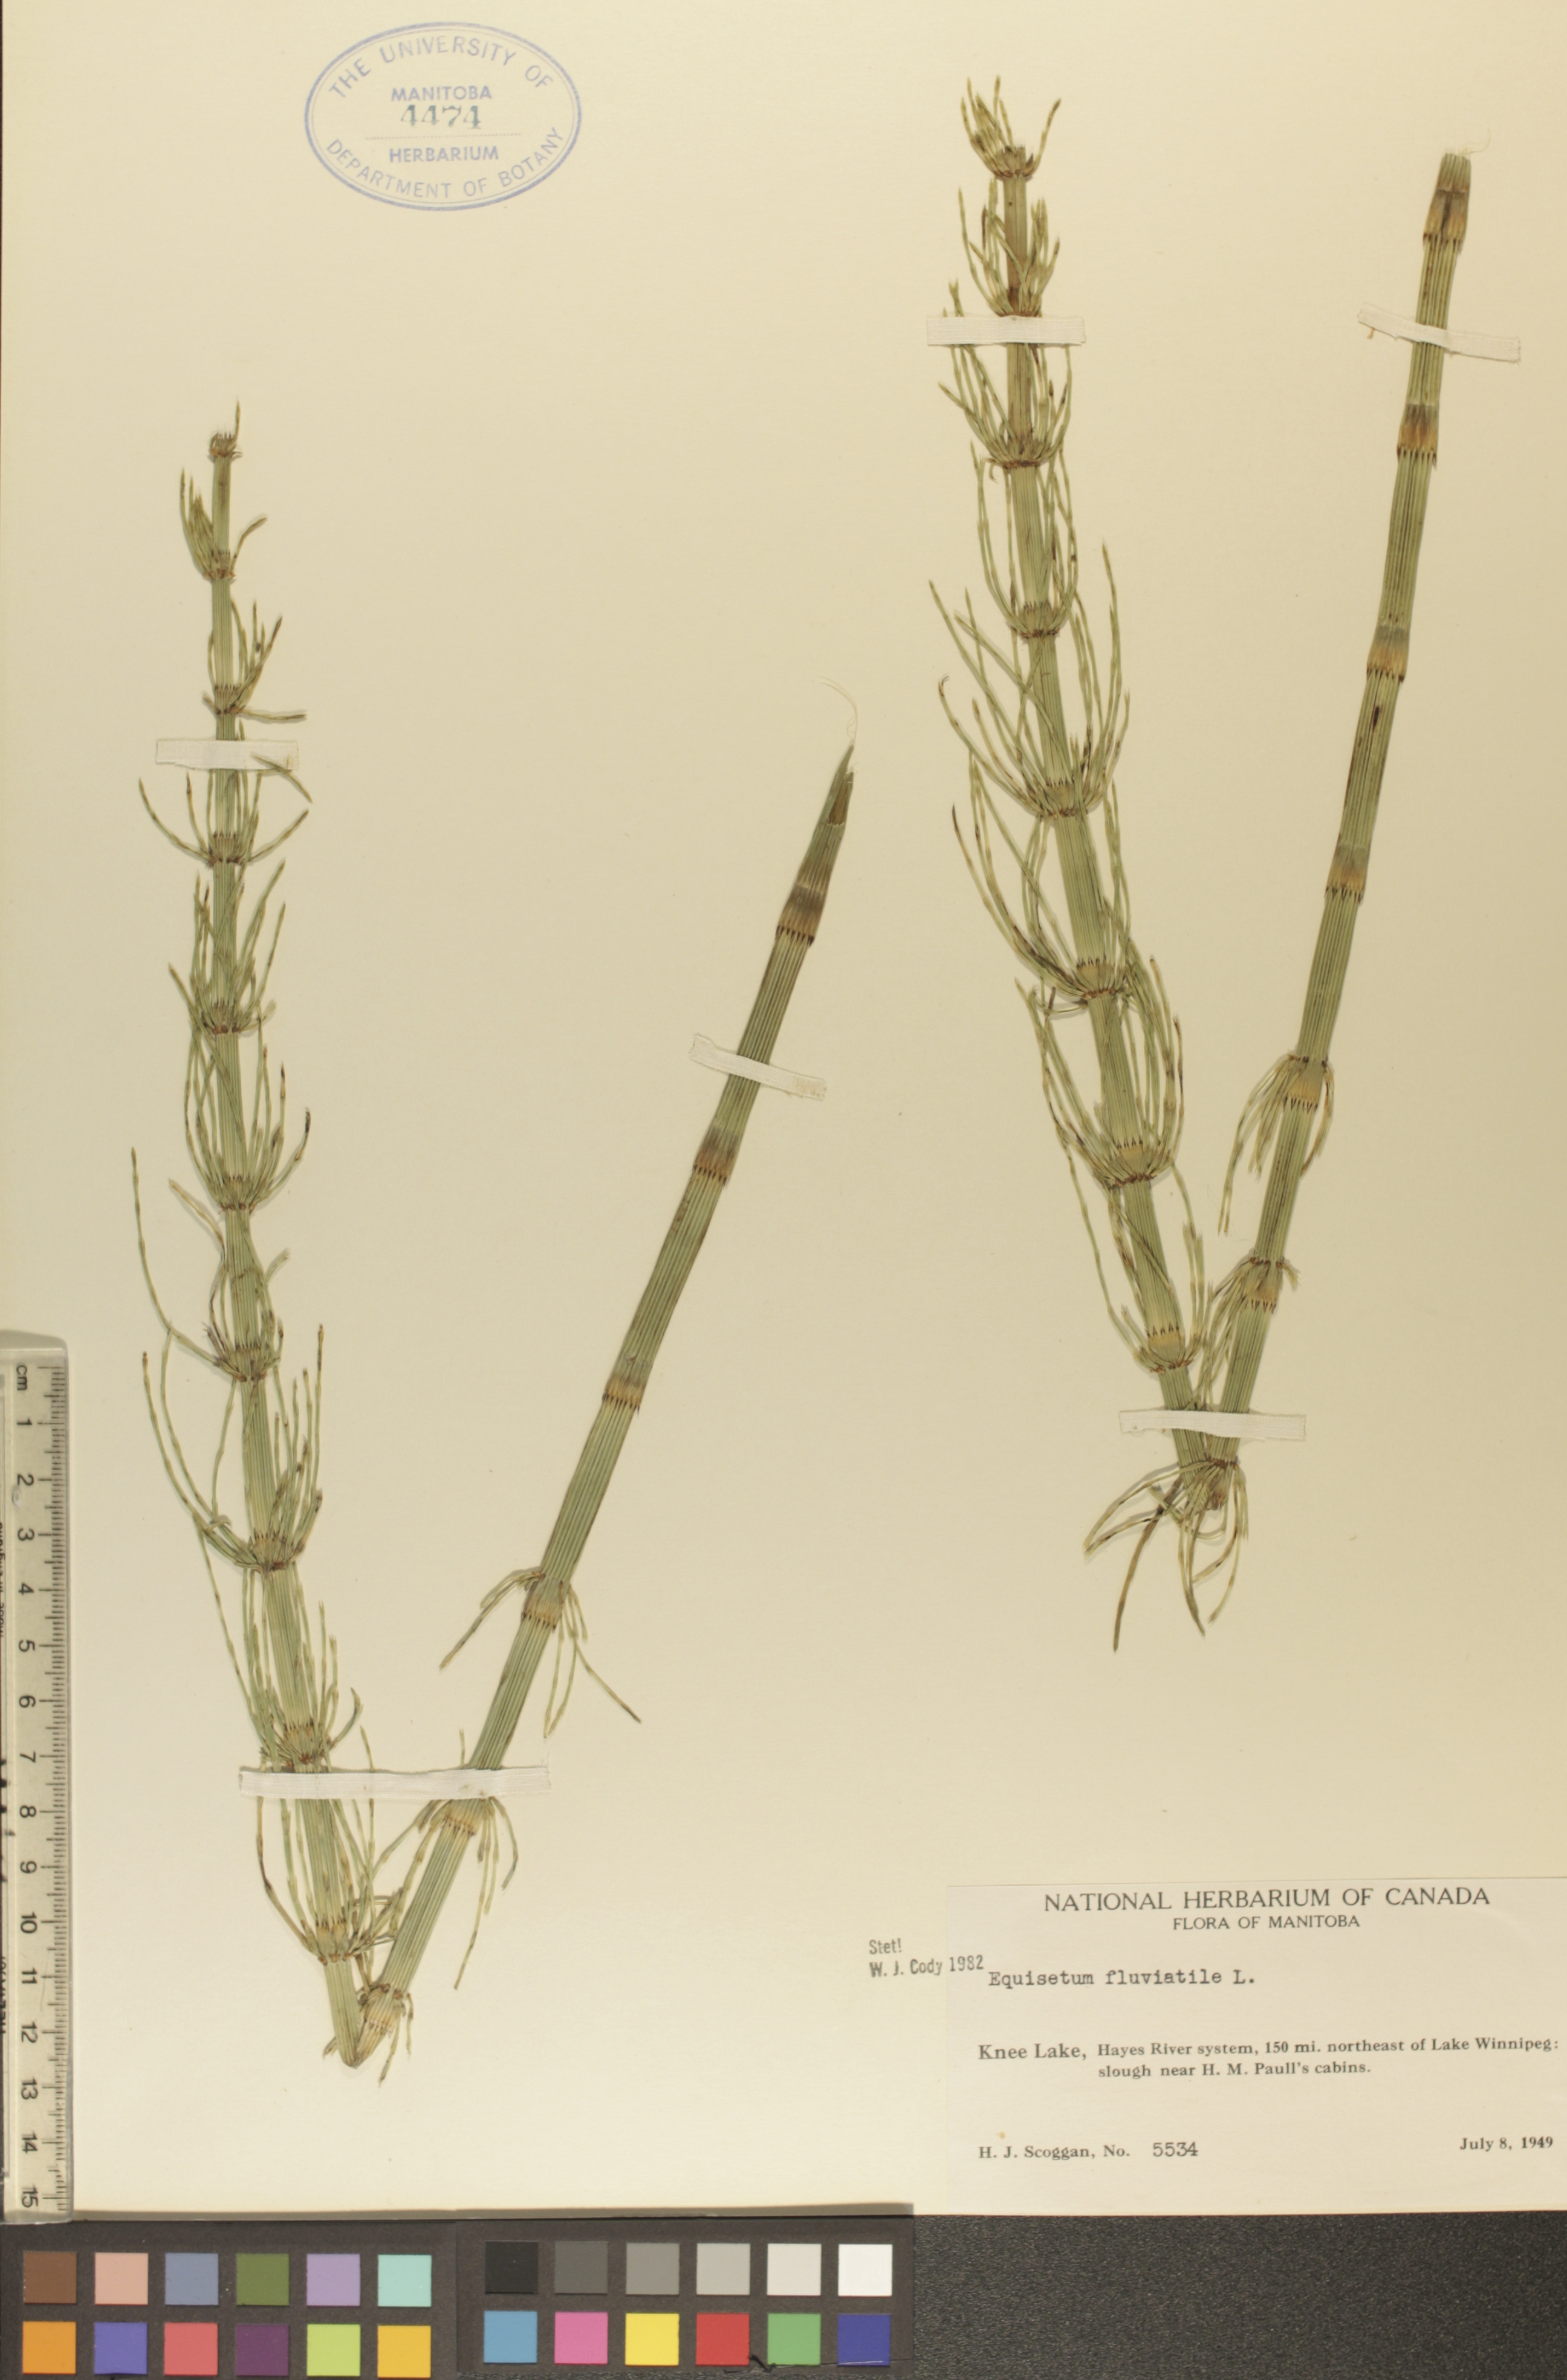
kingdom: Plantae
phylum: Tracheophyta
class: Polypodiopsida
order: Equisetales
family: Equisetaceae
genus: Equisetum
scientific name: Equisetum fluviatile
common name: Water horsetail
